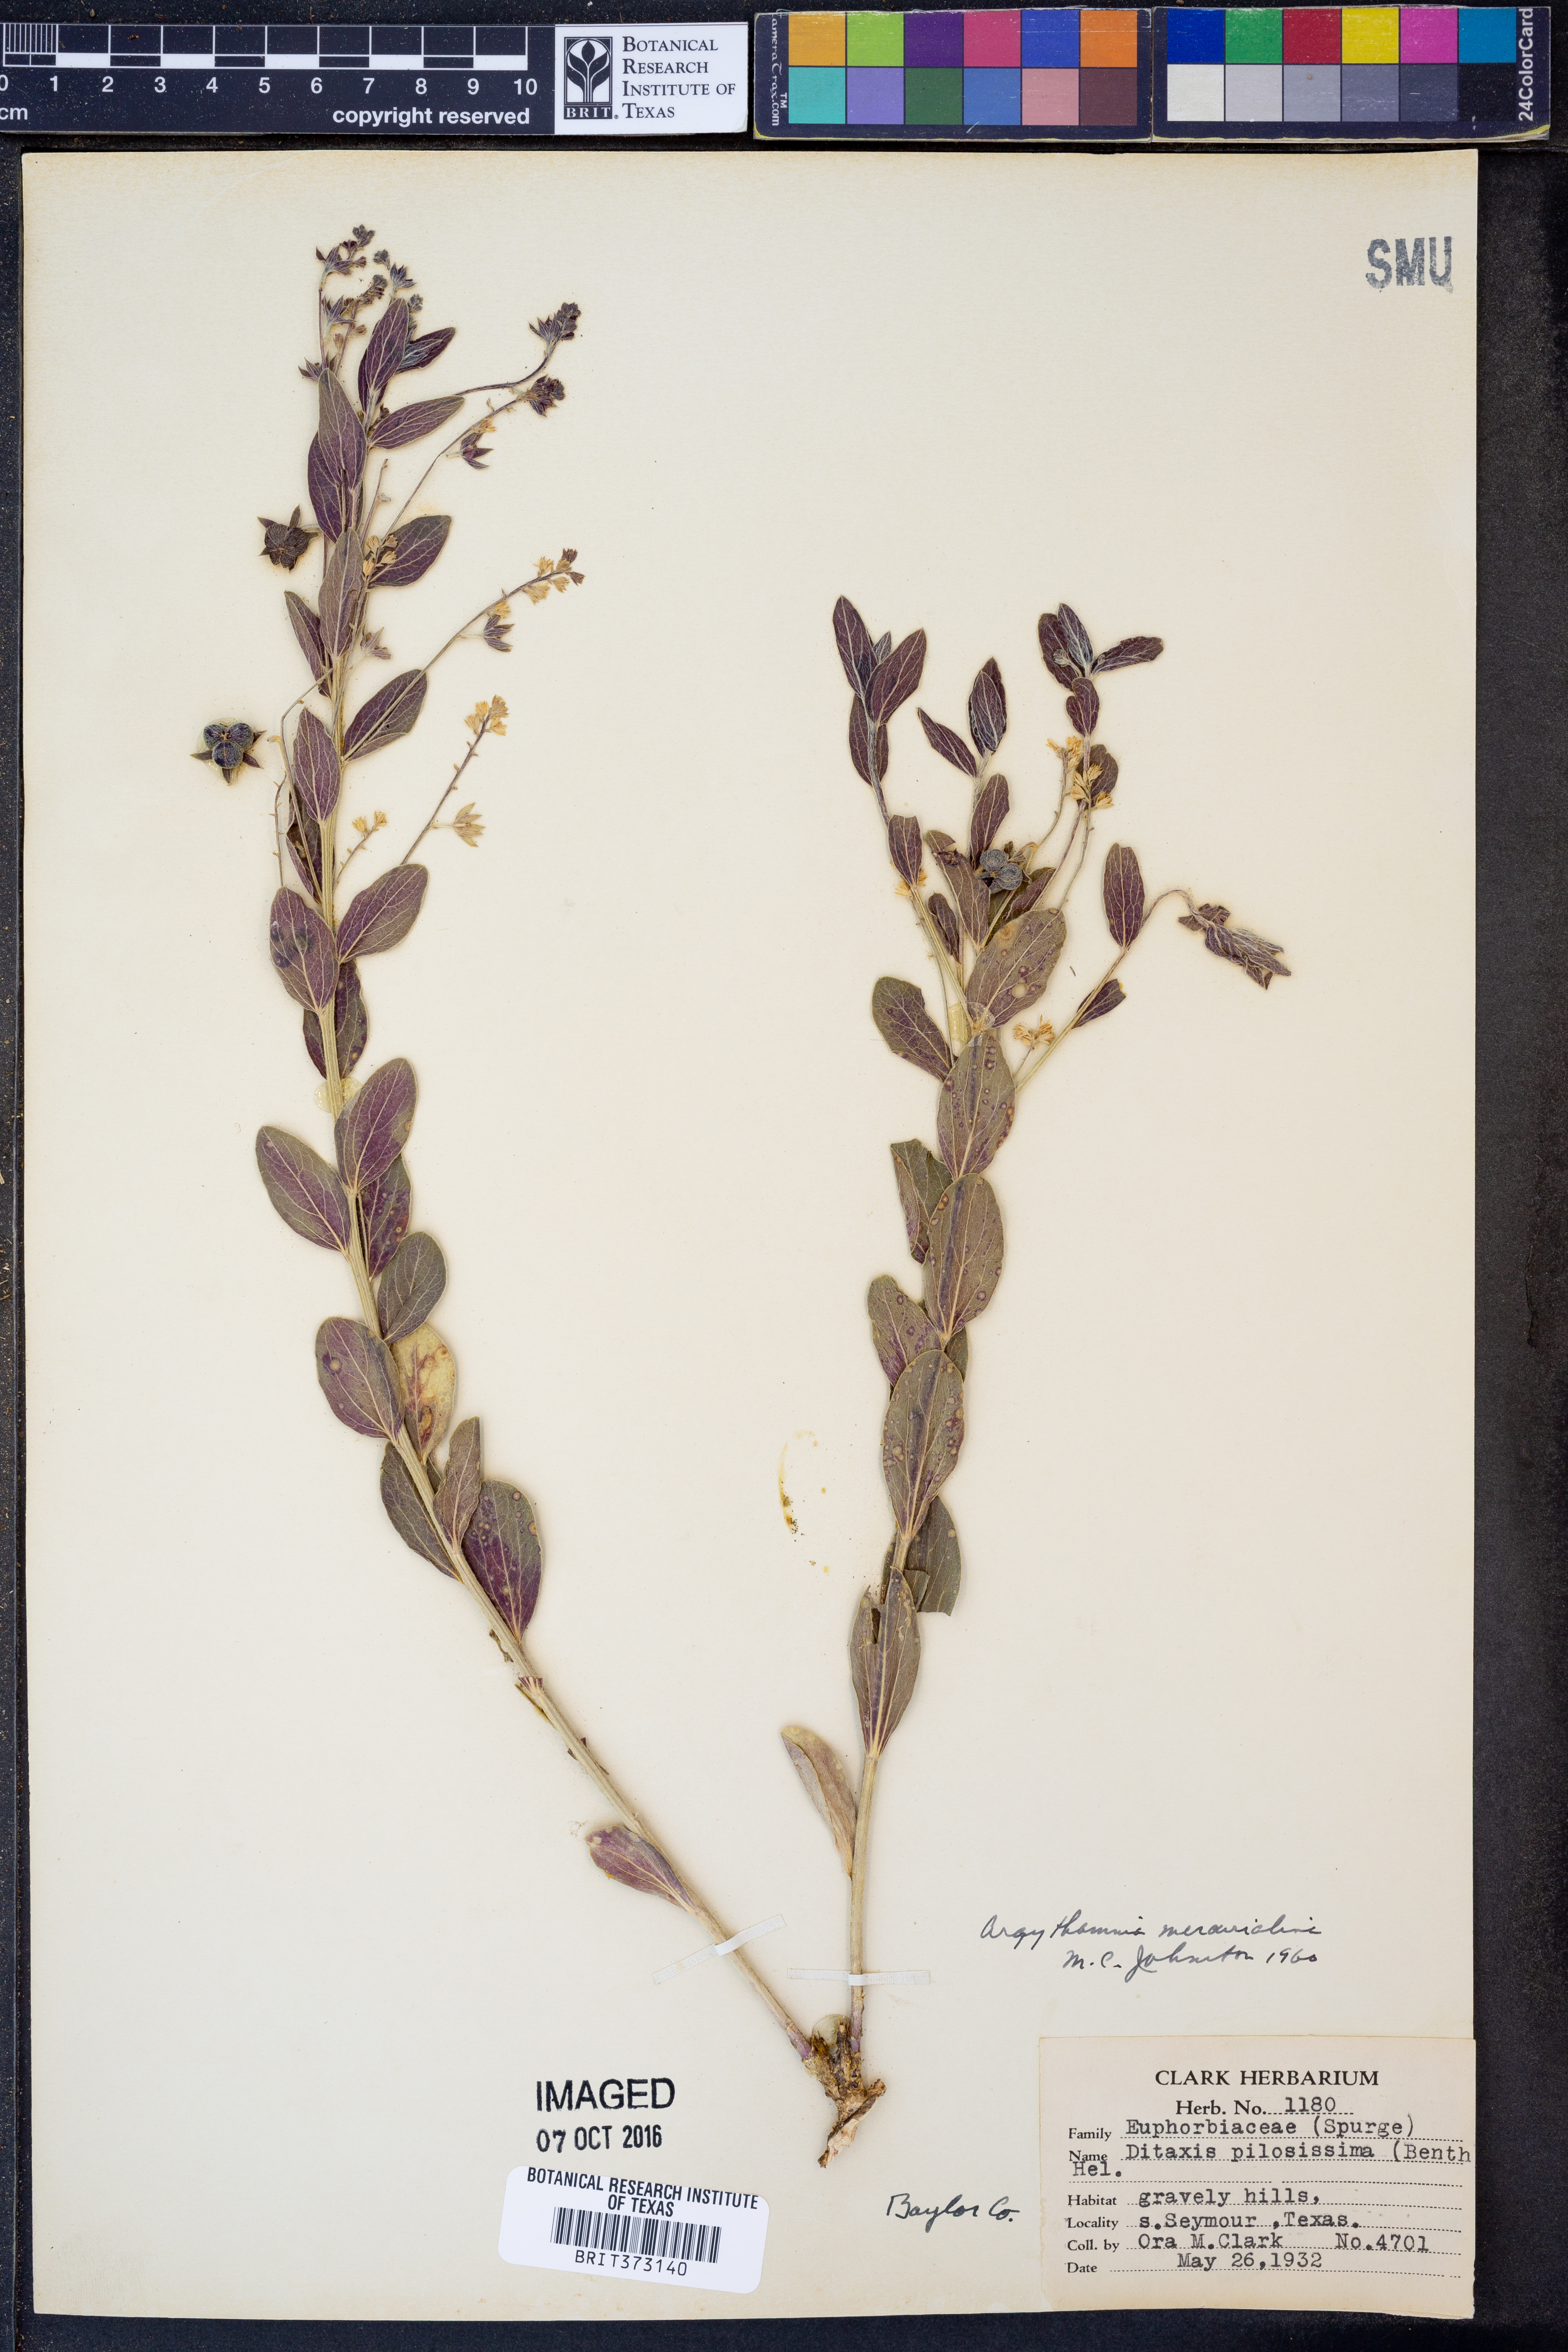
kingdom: Plantae
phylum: Tracheophyta
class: Magnoliopsida
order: Malpighiales
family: Euphorbiaceae
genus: Ditaxis
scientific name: Ditaxis mercurialina
